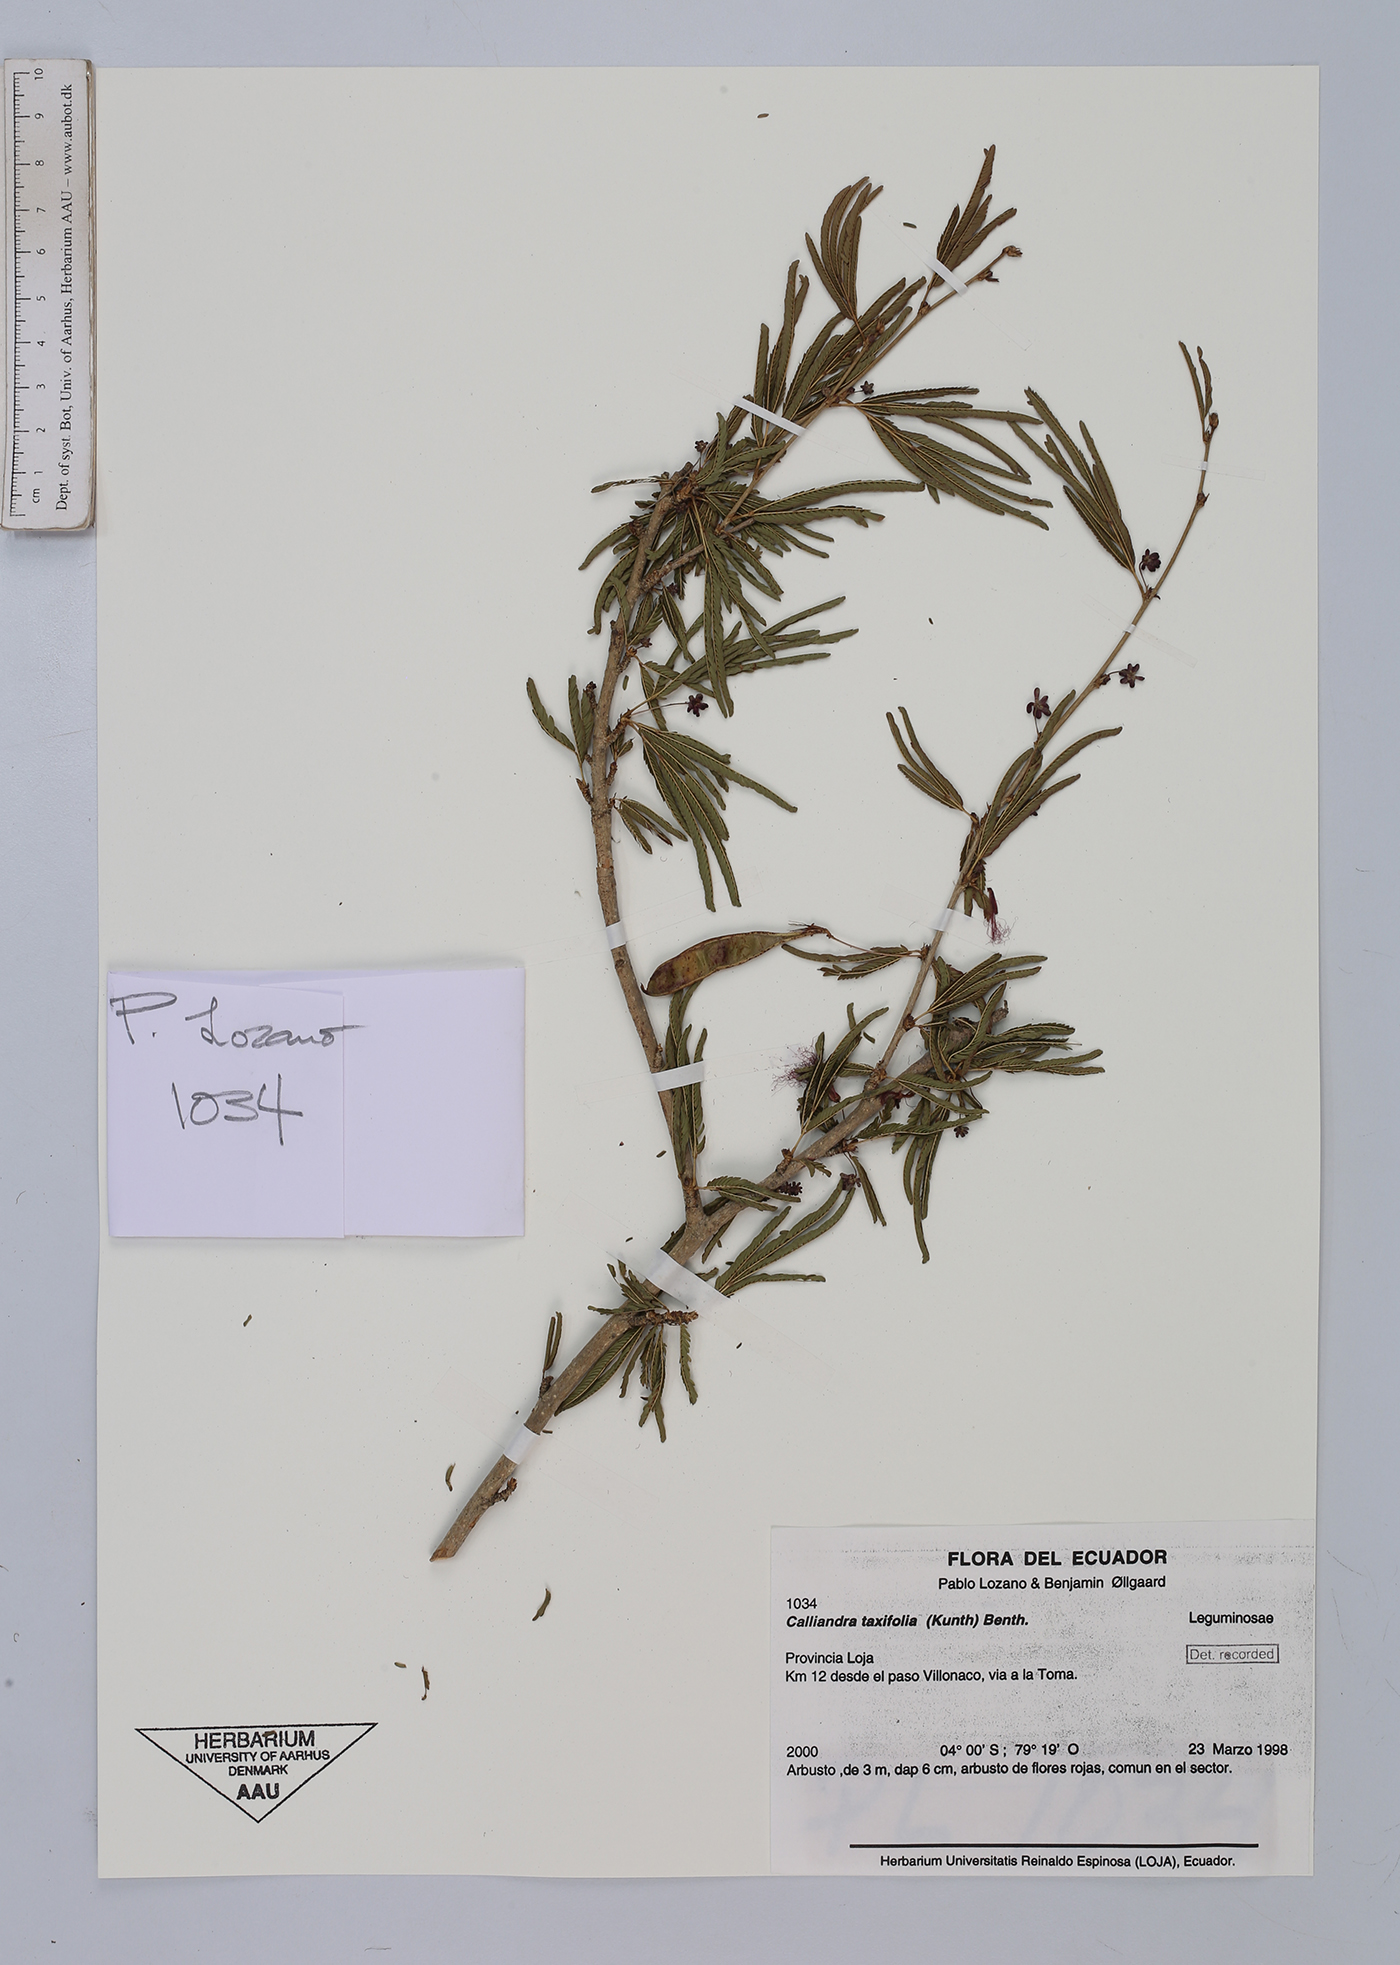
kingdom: Plantae
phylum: Tracheophyta
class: Magnoliopsida
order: Fabales
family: Fabaceae
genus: Calliandra
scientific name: Calliandra taxifolia
